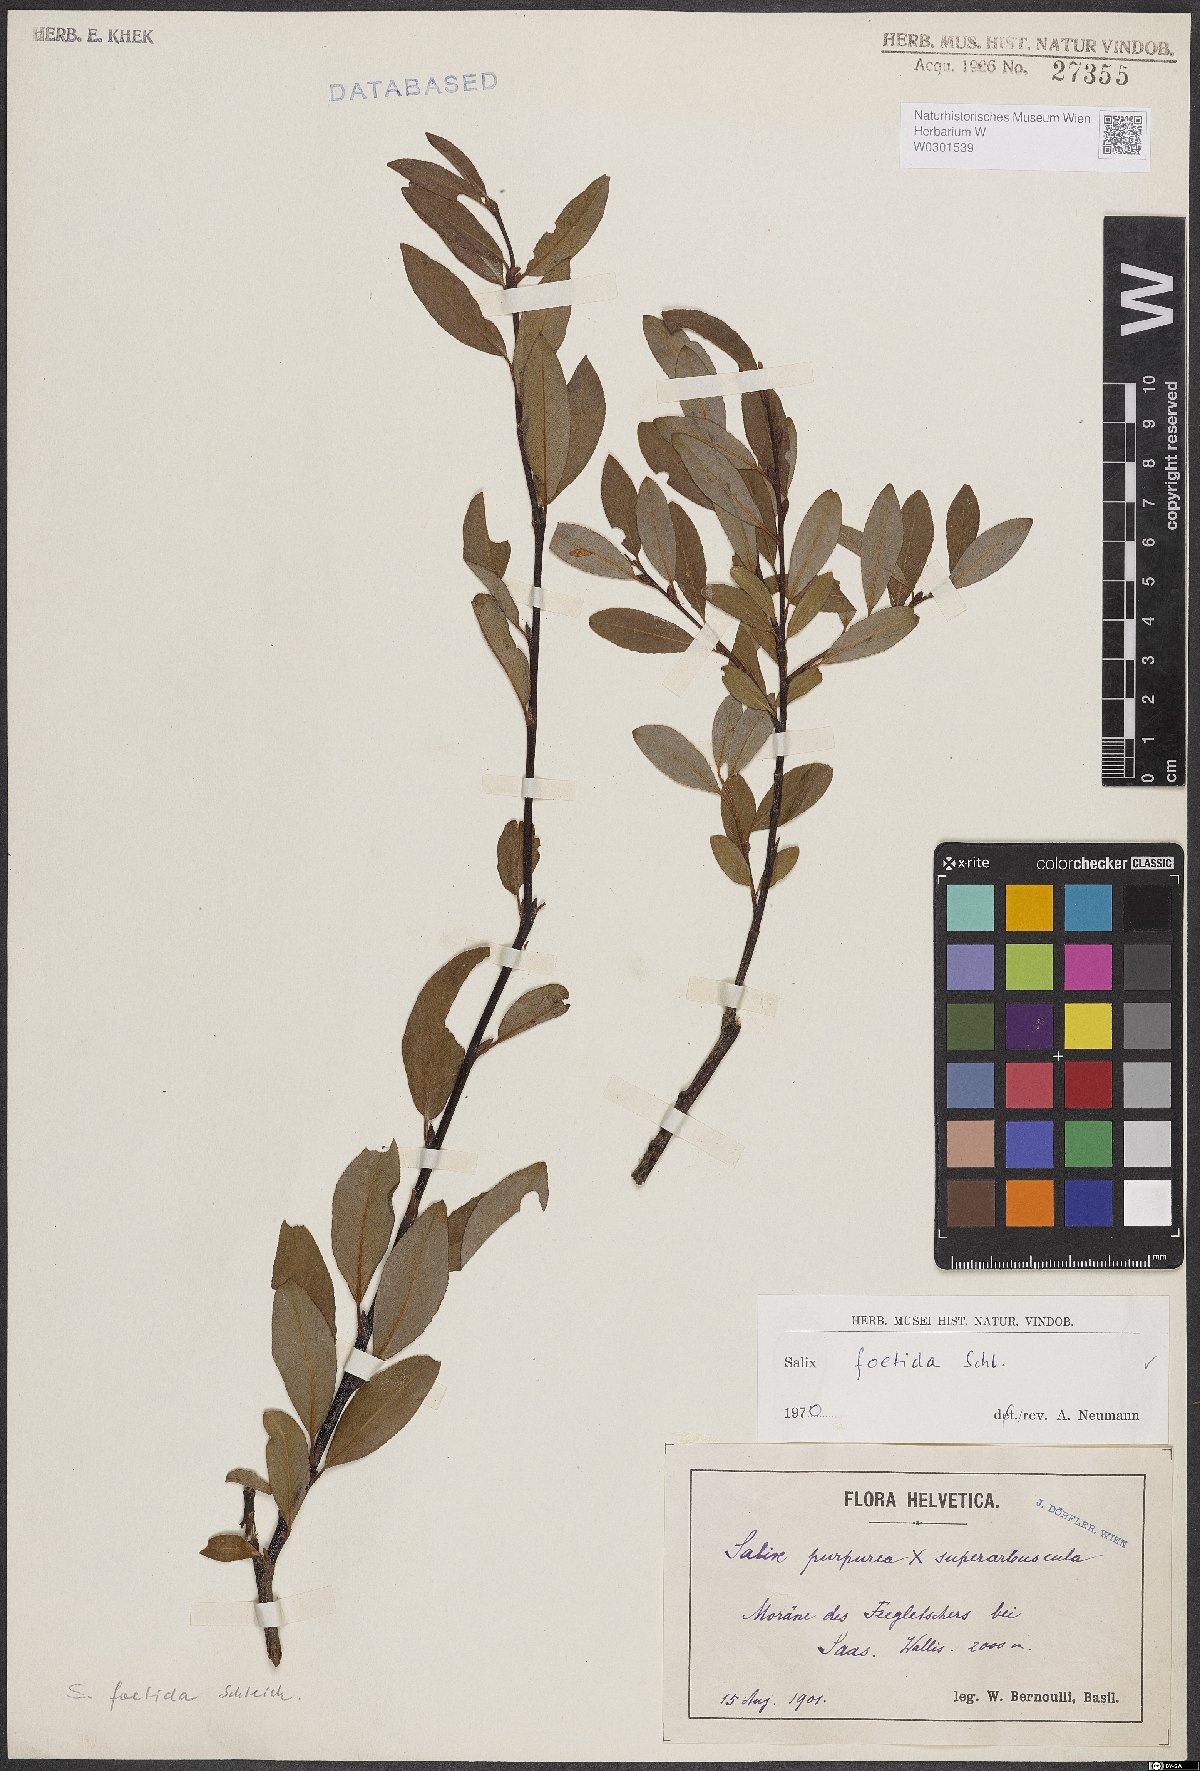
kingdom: Plantae
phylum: Tracheophyta
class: Magnoliopsida
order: Malpighiales
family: Salicaceae
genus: Salix
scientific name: Salix foetida
